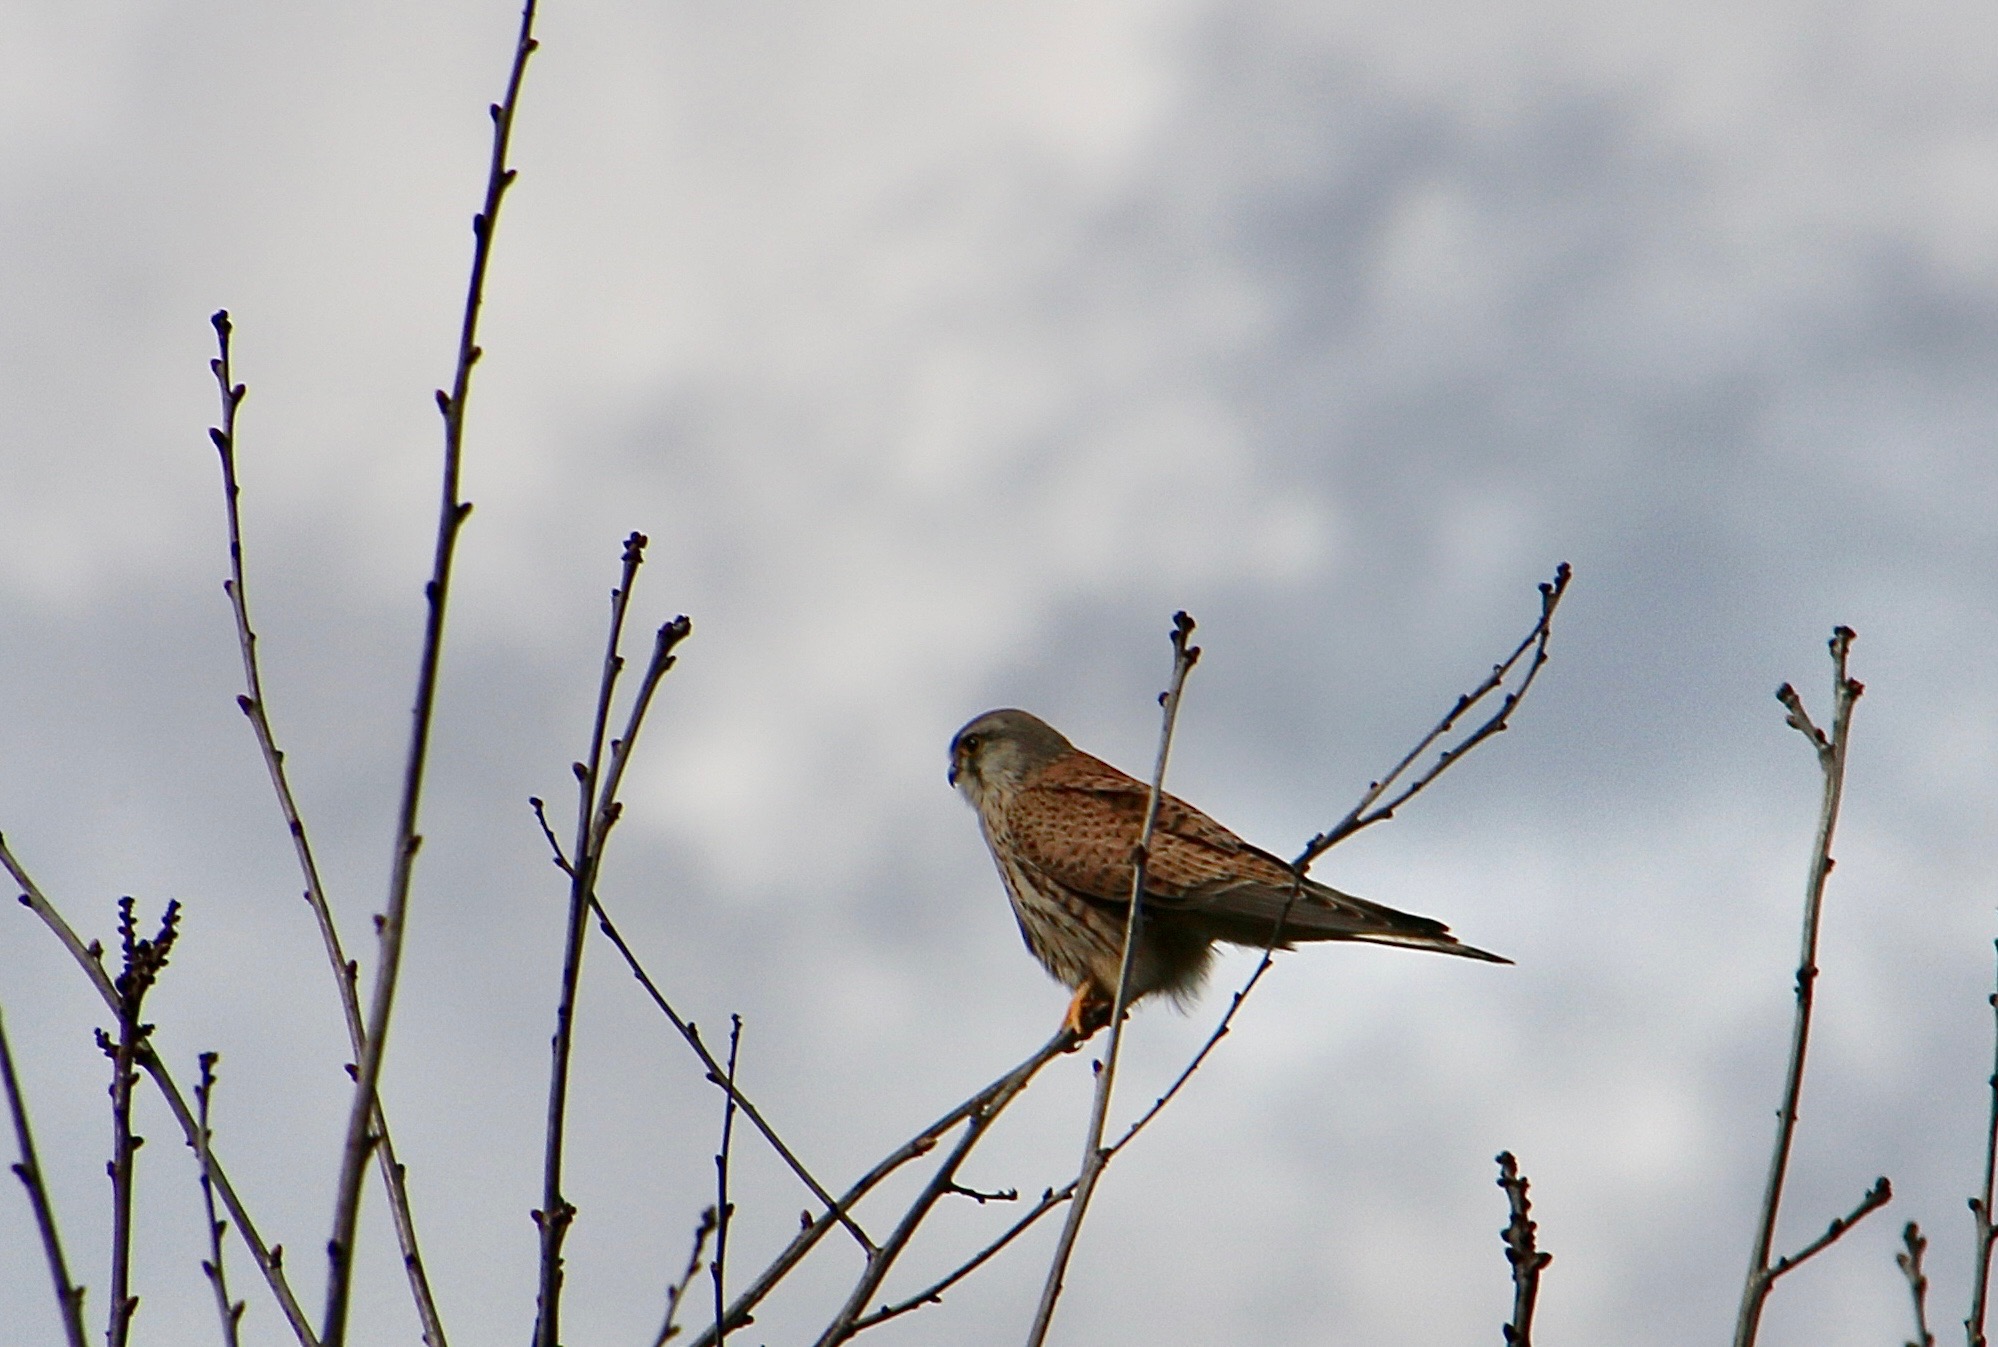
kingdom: Animalia
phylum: Chordata
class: Aves
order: Falconiformes
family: Falconidae
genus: Falco
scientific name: Falco tinnunculus
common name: Tårnfalk
